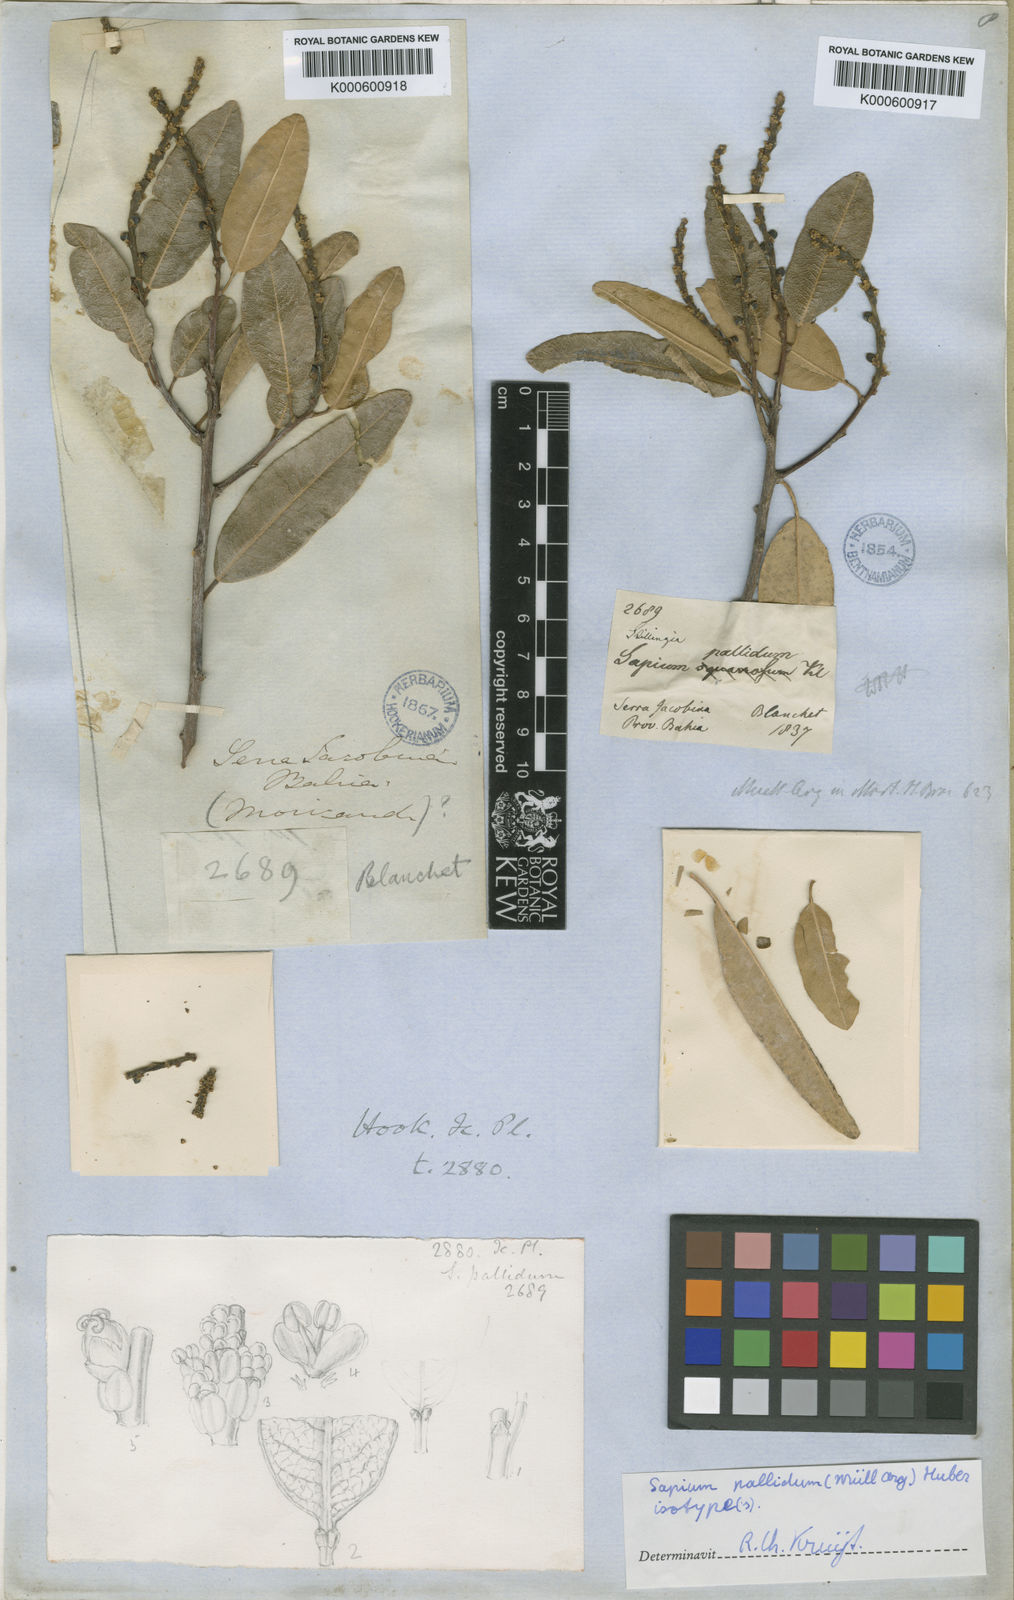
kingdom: Plantae
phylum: Tracheophyta
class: Magnoliopsida
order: Malpighiales
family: Euphorbiaceae
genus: Sapium
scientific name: Sapium
